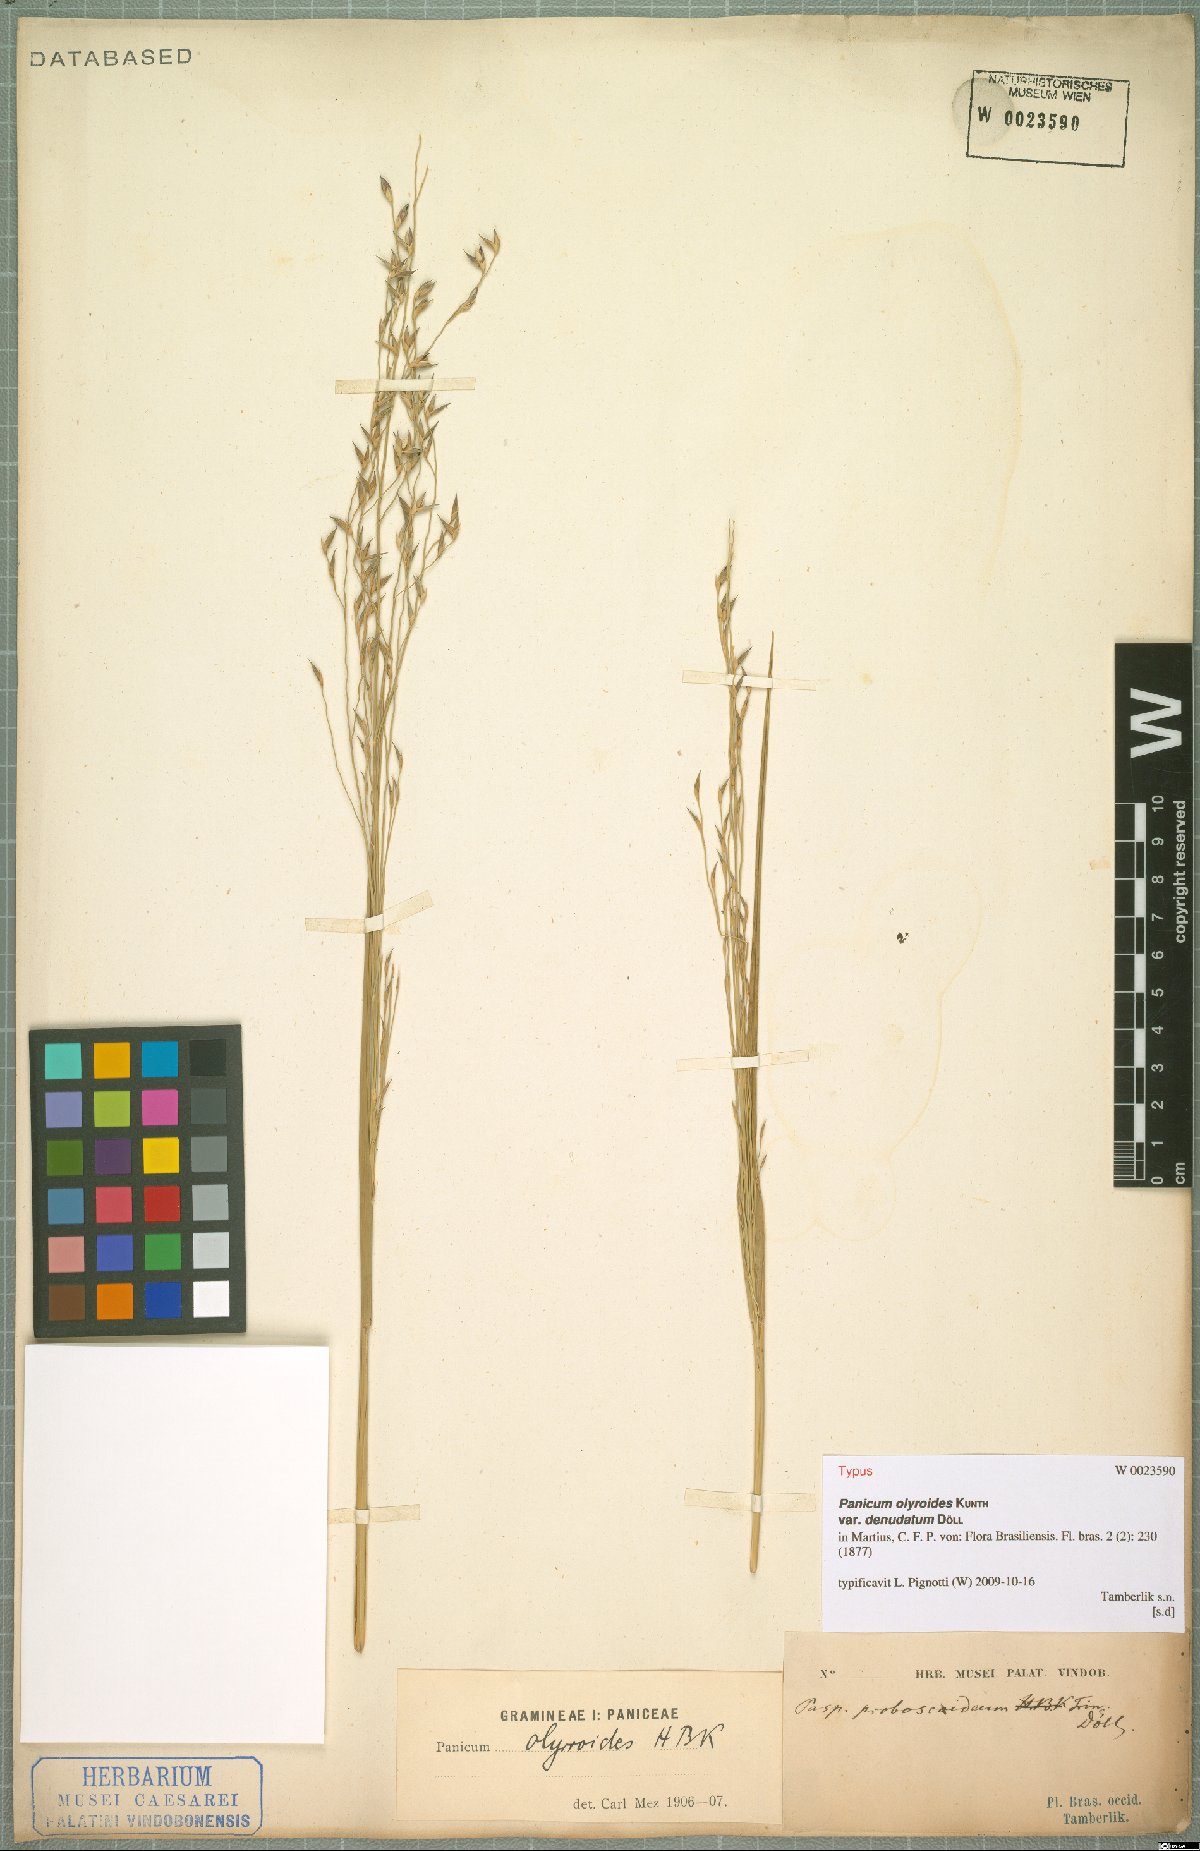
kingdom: Plantae
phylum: Tracheophyta
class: Liliopsida
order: Poales
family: Poaceae
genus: Panicum
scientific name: Panicum olyroides
